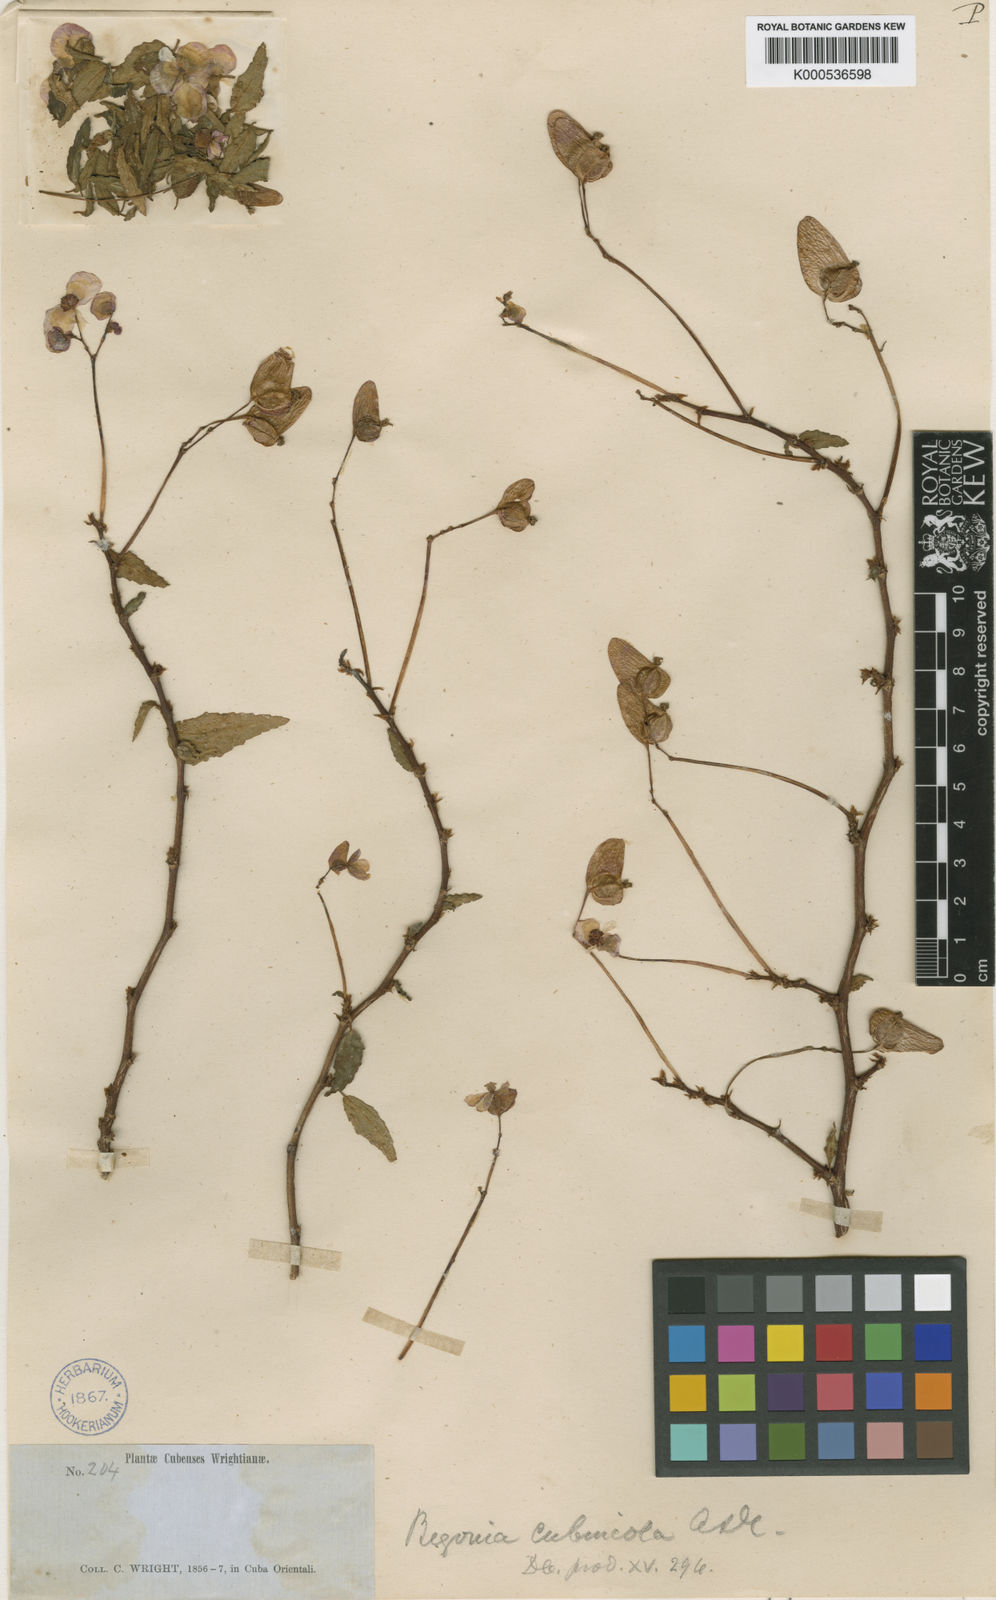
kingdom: Plantae
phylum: Tracheophyta
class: Magnoliopsida
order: Cucurbitales
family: Begoniaceae
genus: Begonia
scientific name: Begonia cubensis
